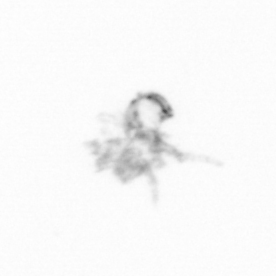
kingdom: Chromista
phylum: Ochrophyta
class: Bacillariophyceae
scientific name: Bacillariophyceae
